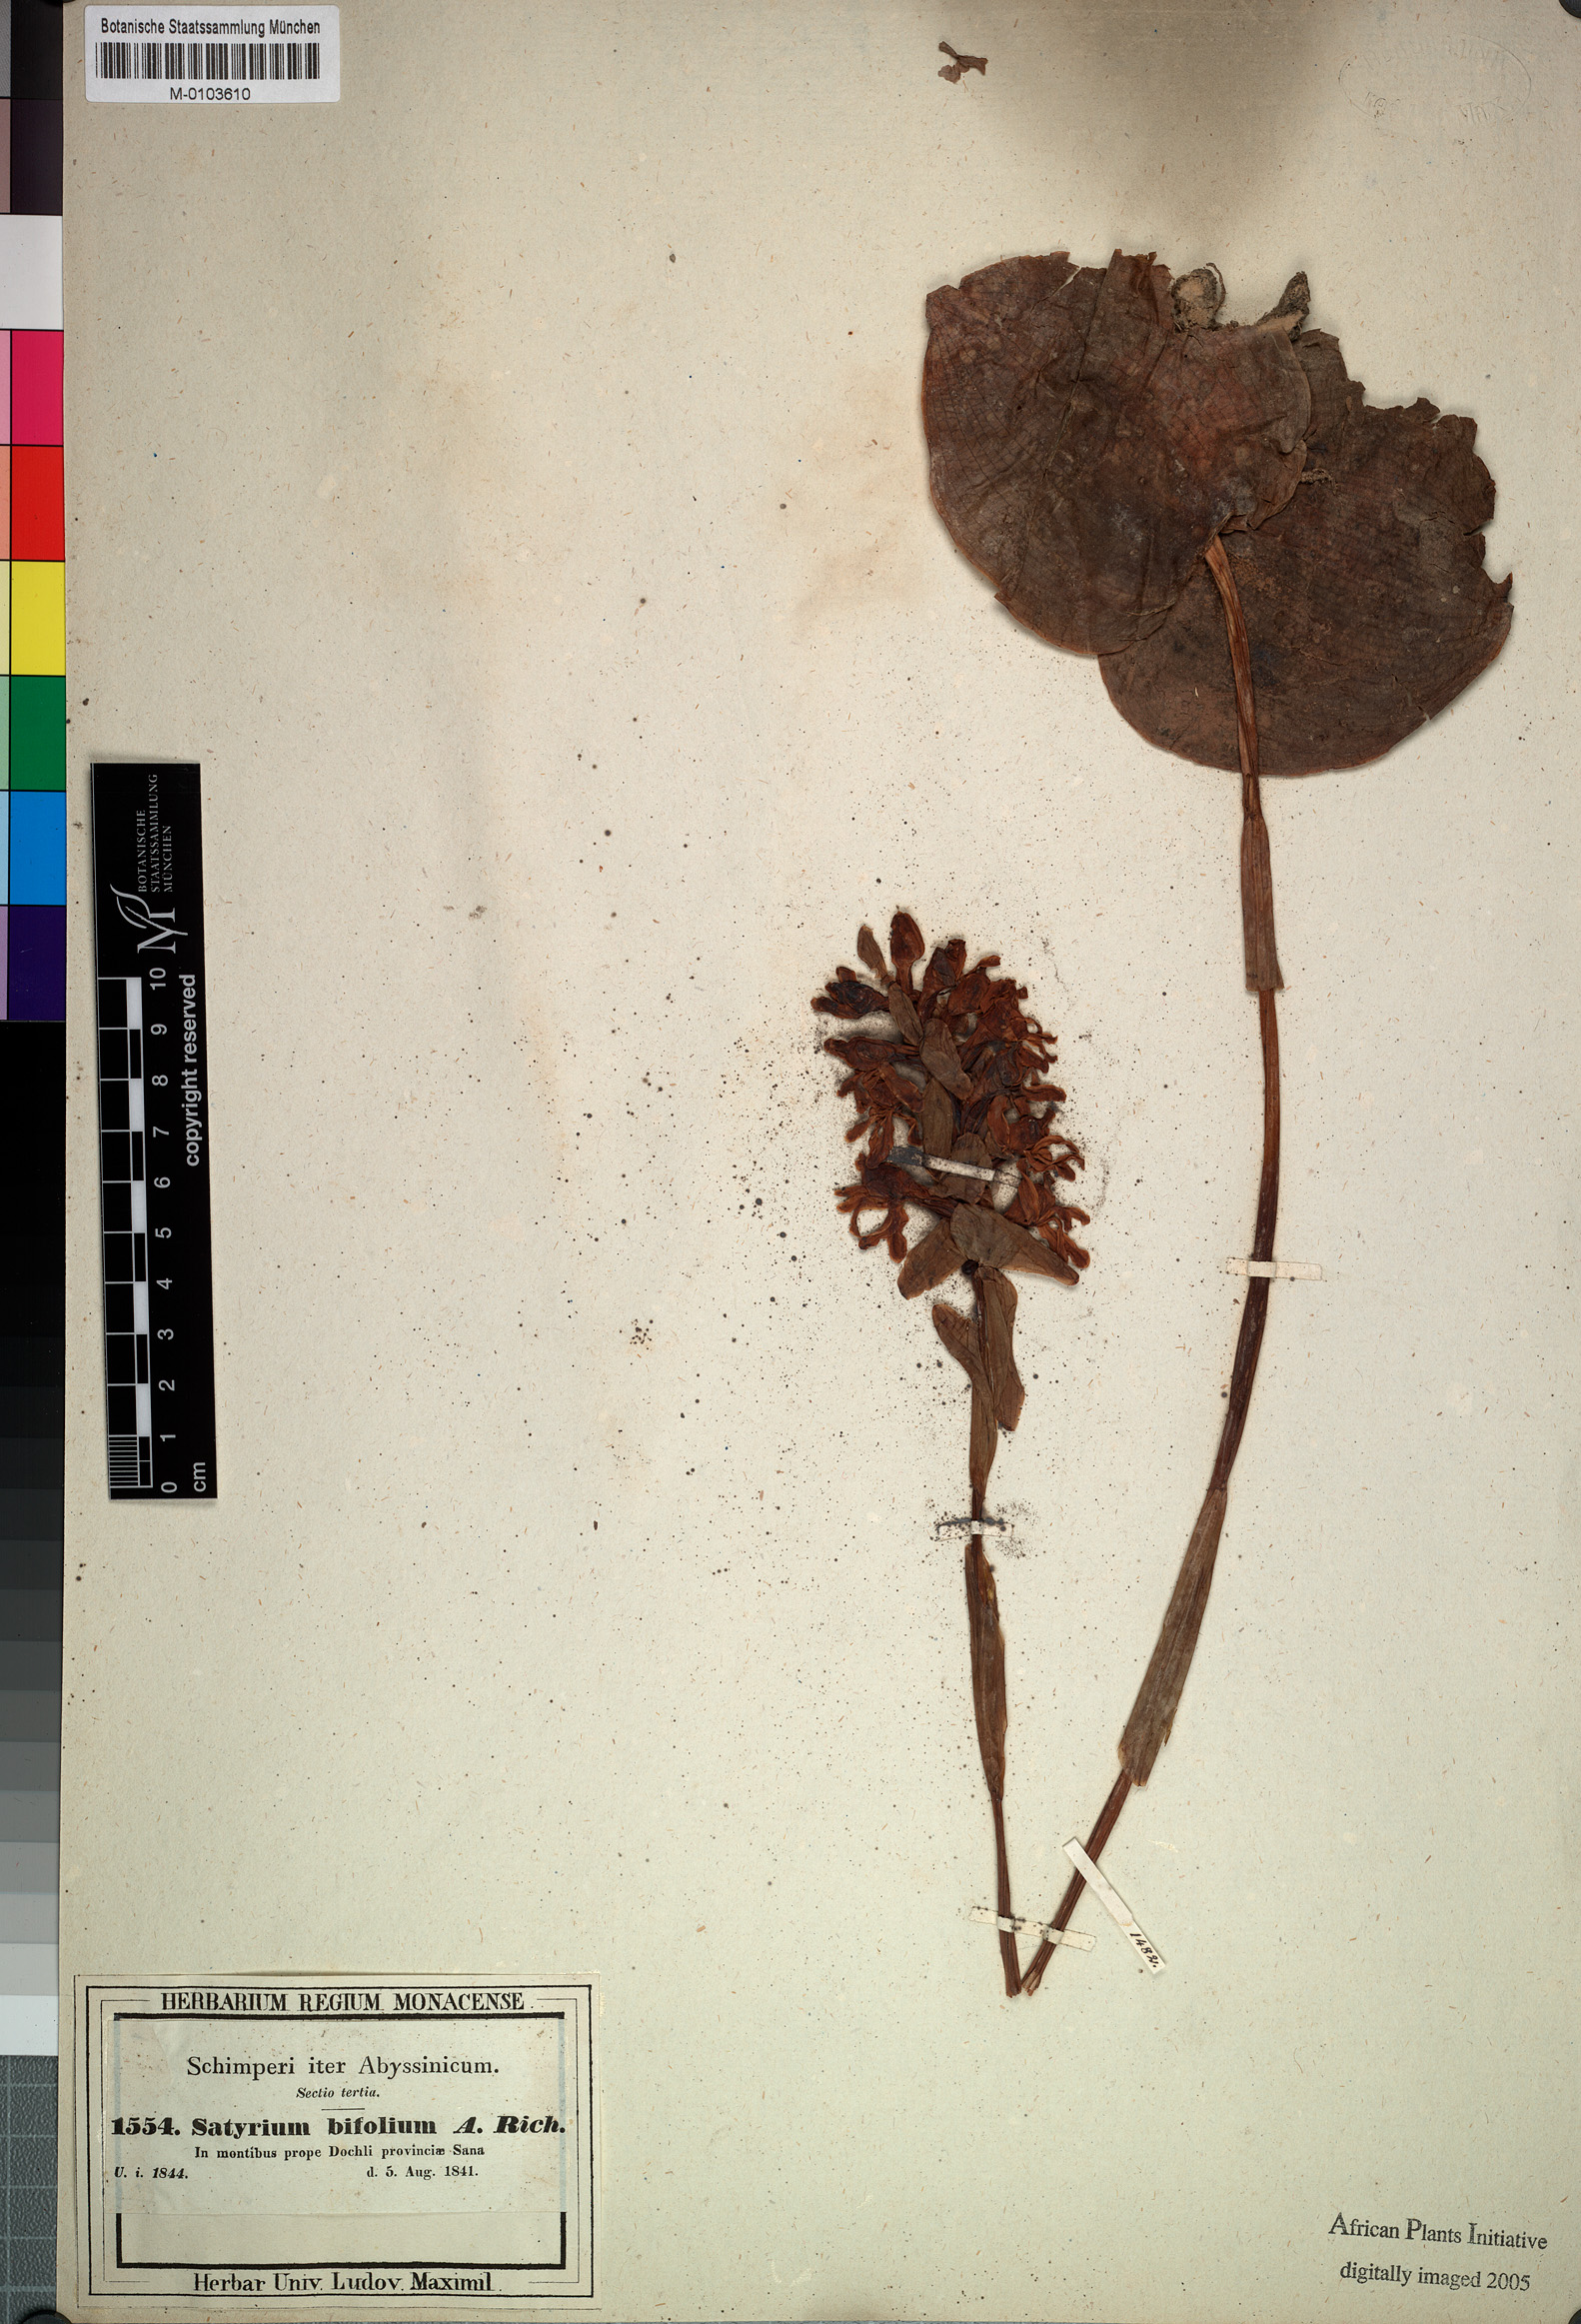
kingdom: Plantae
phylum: Tracheophyta
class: Liliopsida
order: Asparagales
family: Orchidaceae
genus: Satyrium
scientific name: Satyrium aethiopicum
